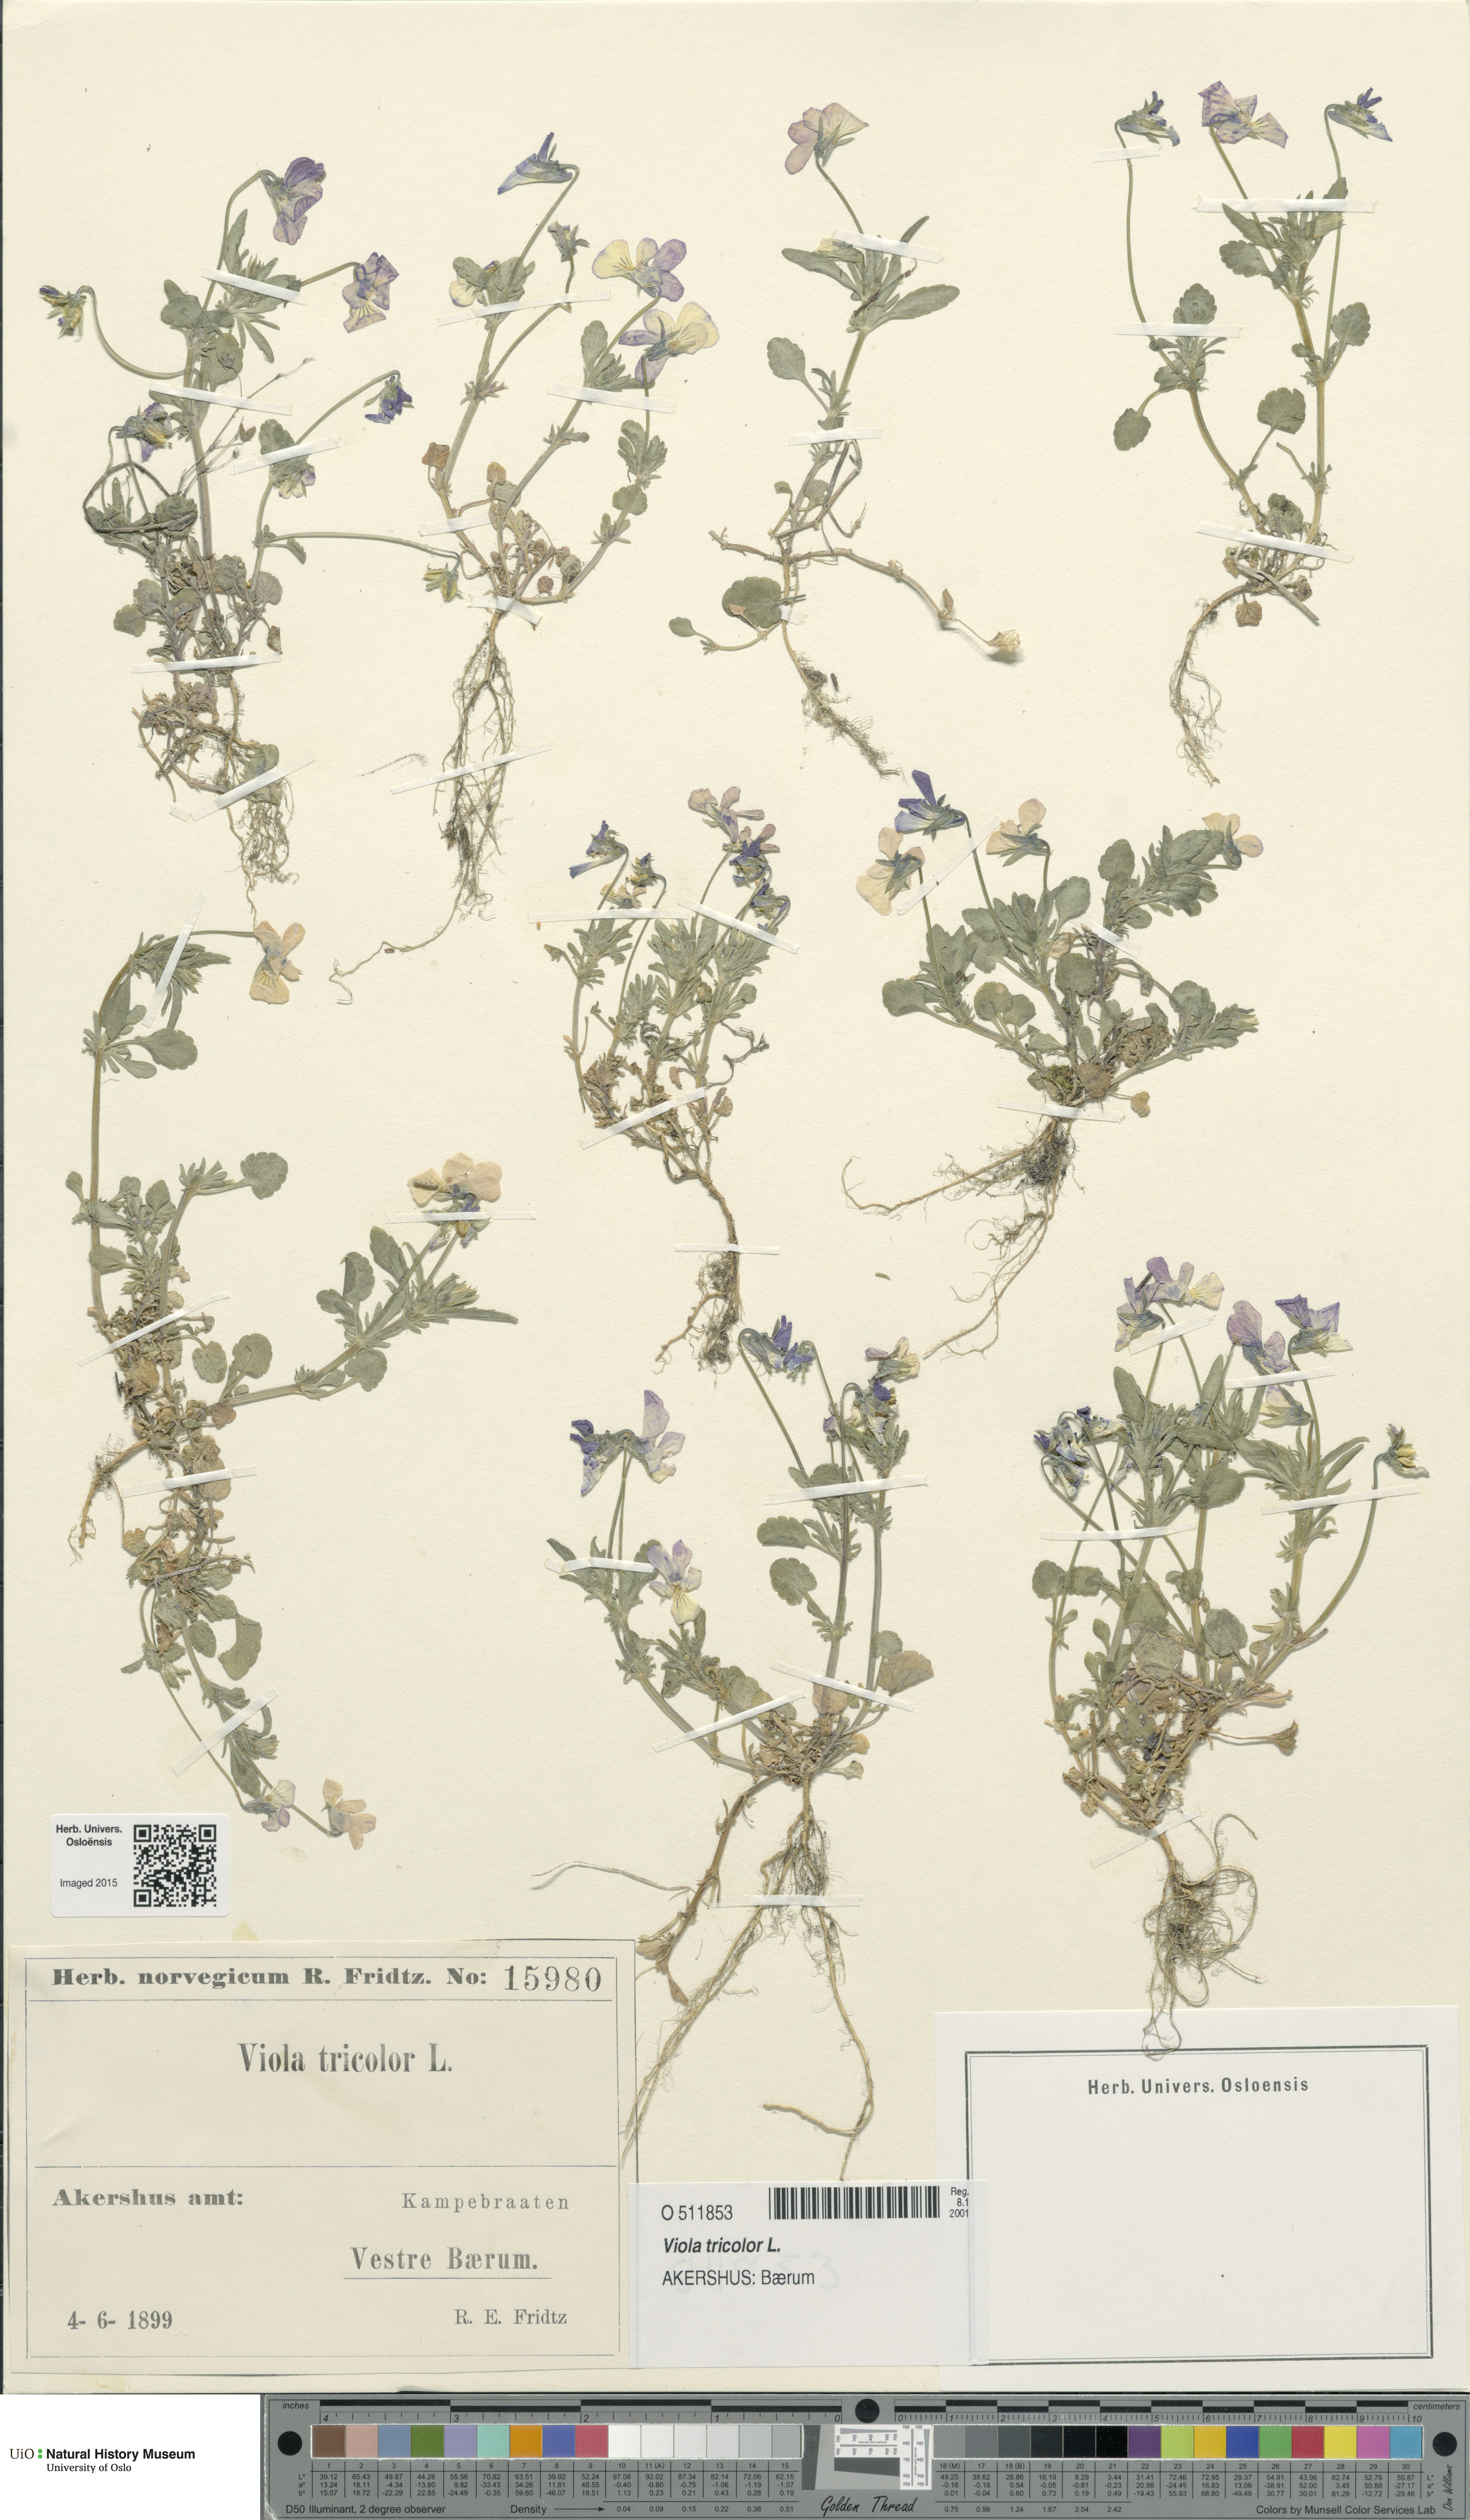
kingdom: Plantae
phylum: Tracheophyta
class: Magnoliopsida
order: Malpighiales
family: Violaceae
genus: Viola
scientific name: Viola tricolor
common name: Pansy
